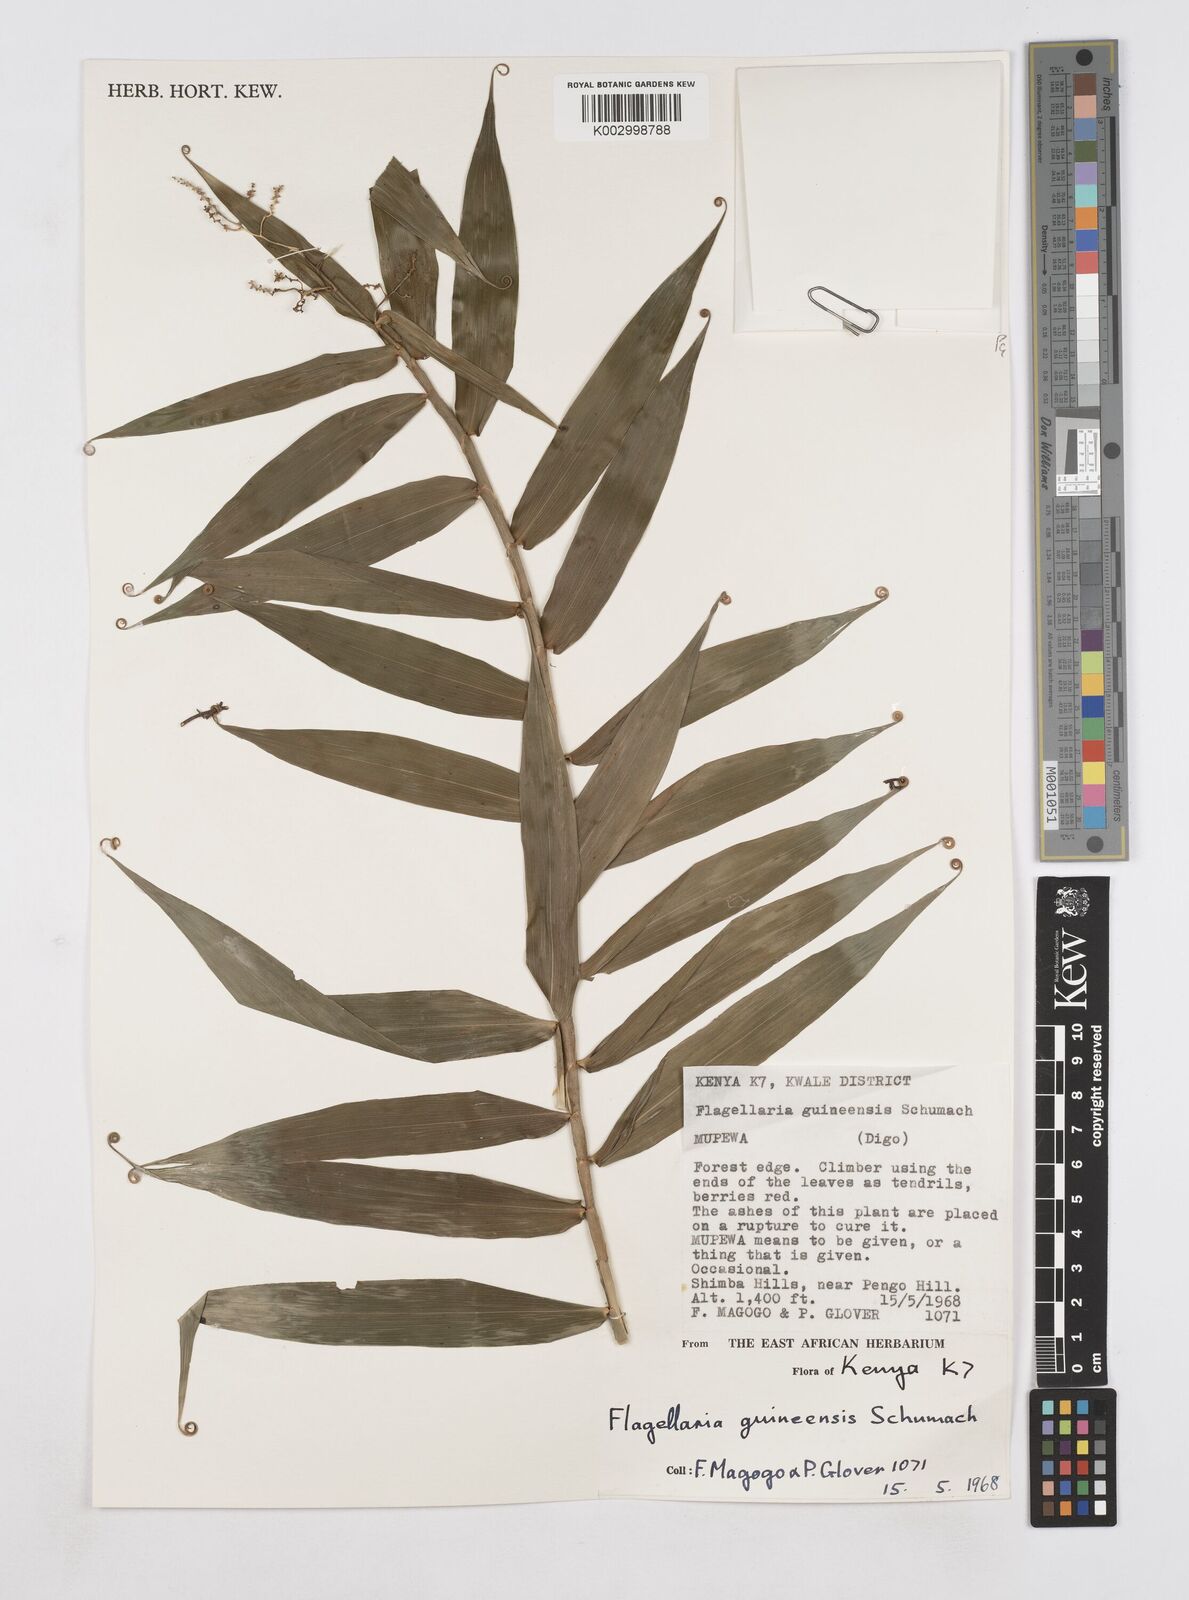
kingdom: Plantae
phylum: Tracheophyta
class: Liliopsida
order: Poales
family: Flagellariaceae
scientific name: Flagellariaceae
